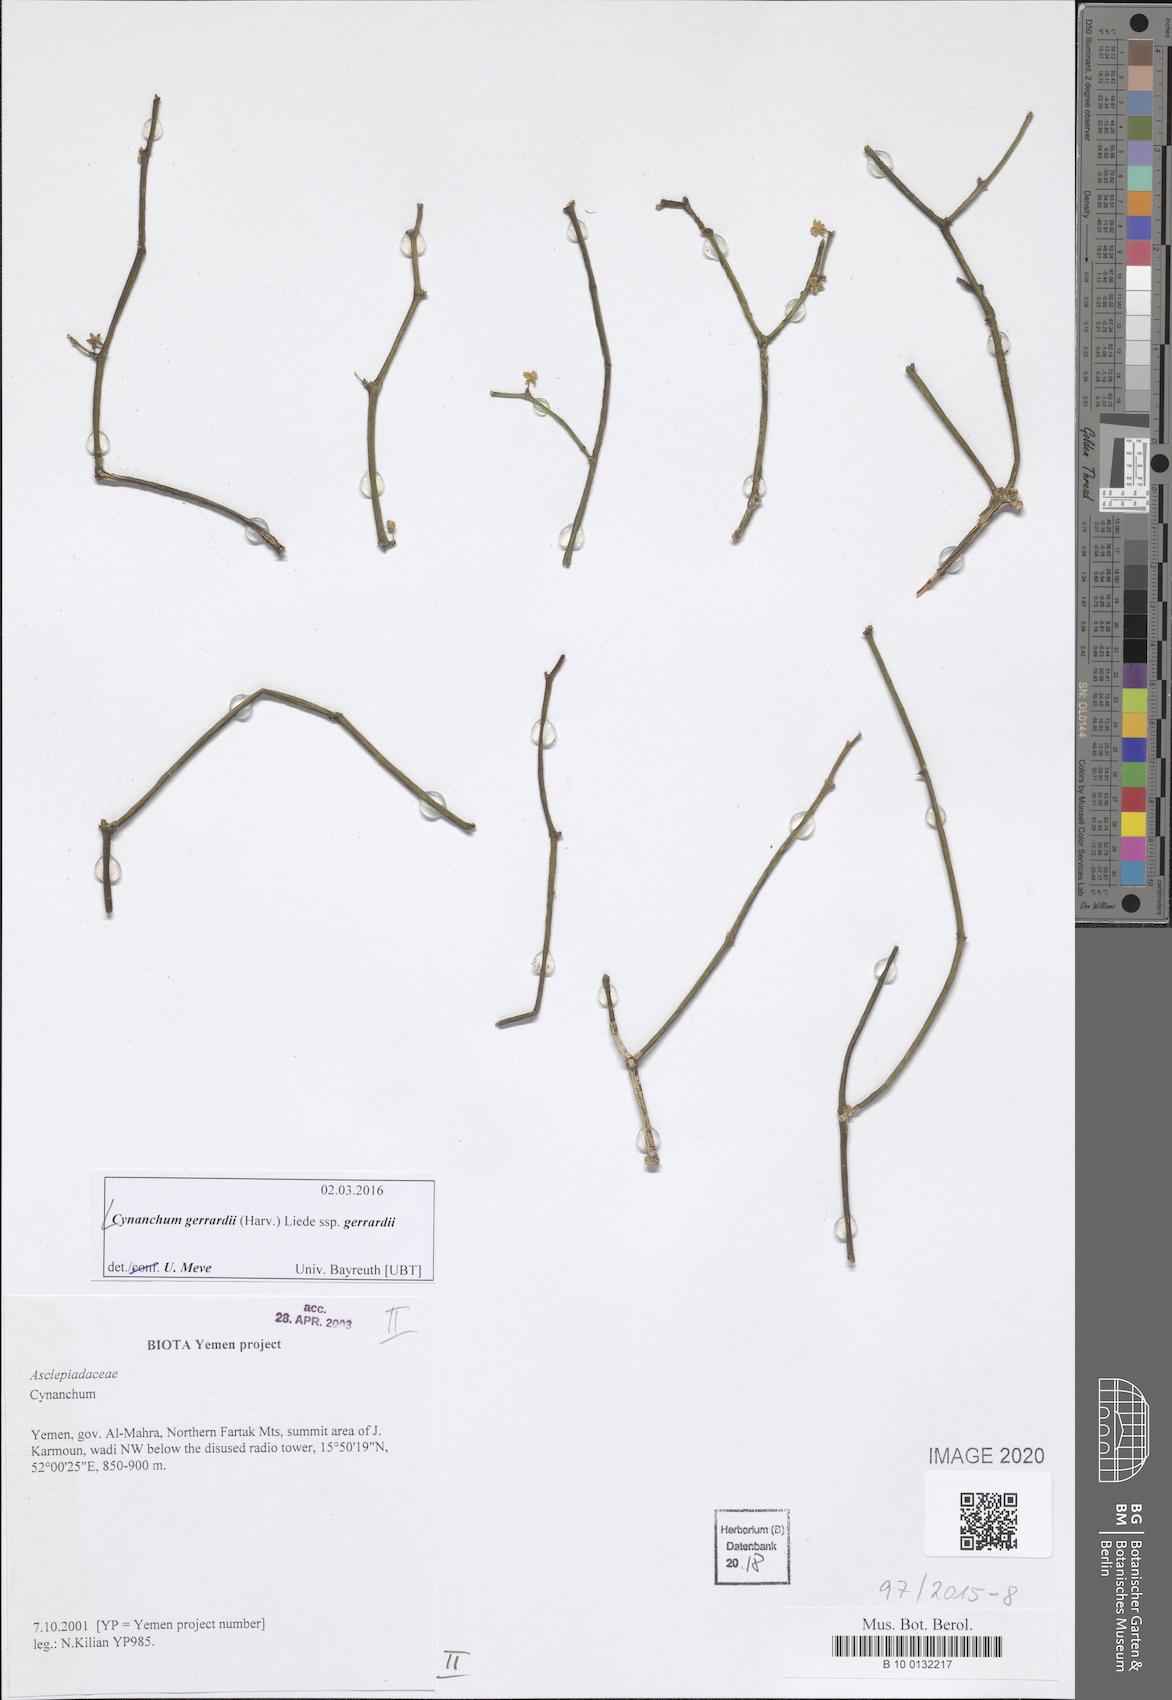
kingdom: Plantae
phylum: Tracheophyta
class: Magnoliopsida
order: Gentianales
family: Apocynaceae
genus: Cynanchum
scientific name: Cynanchum gerrardi
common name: Swallow-wort
